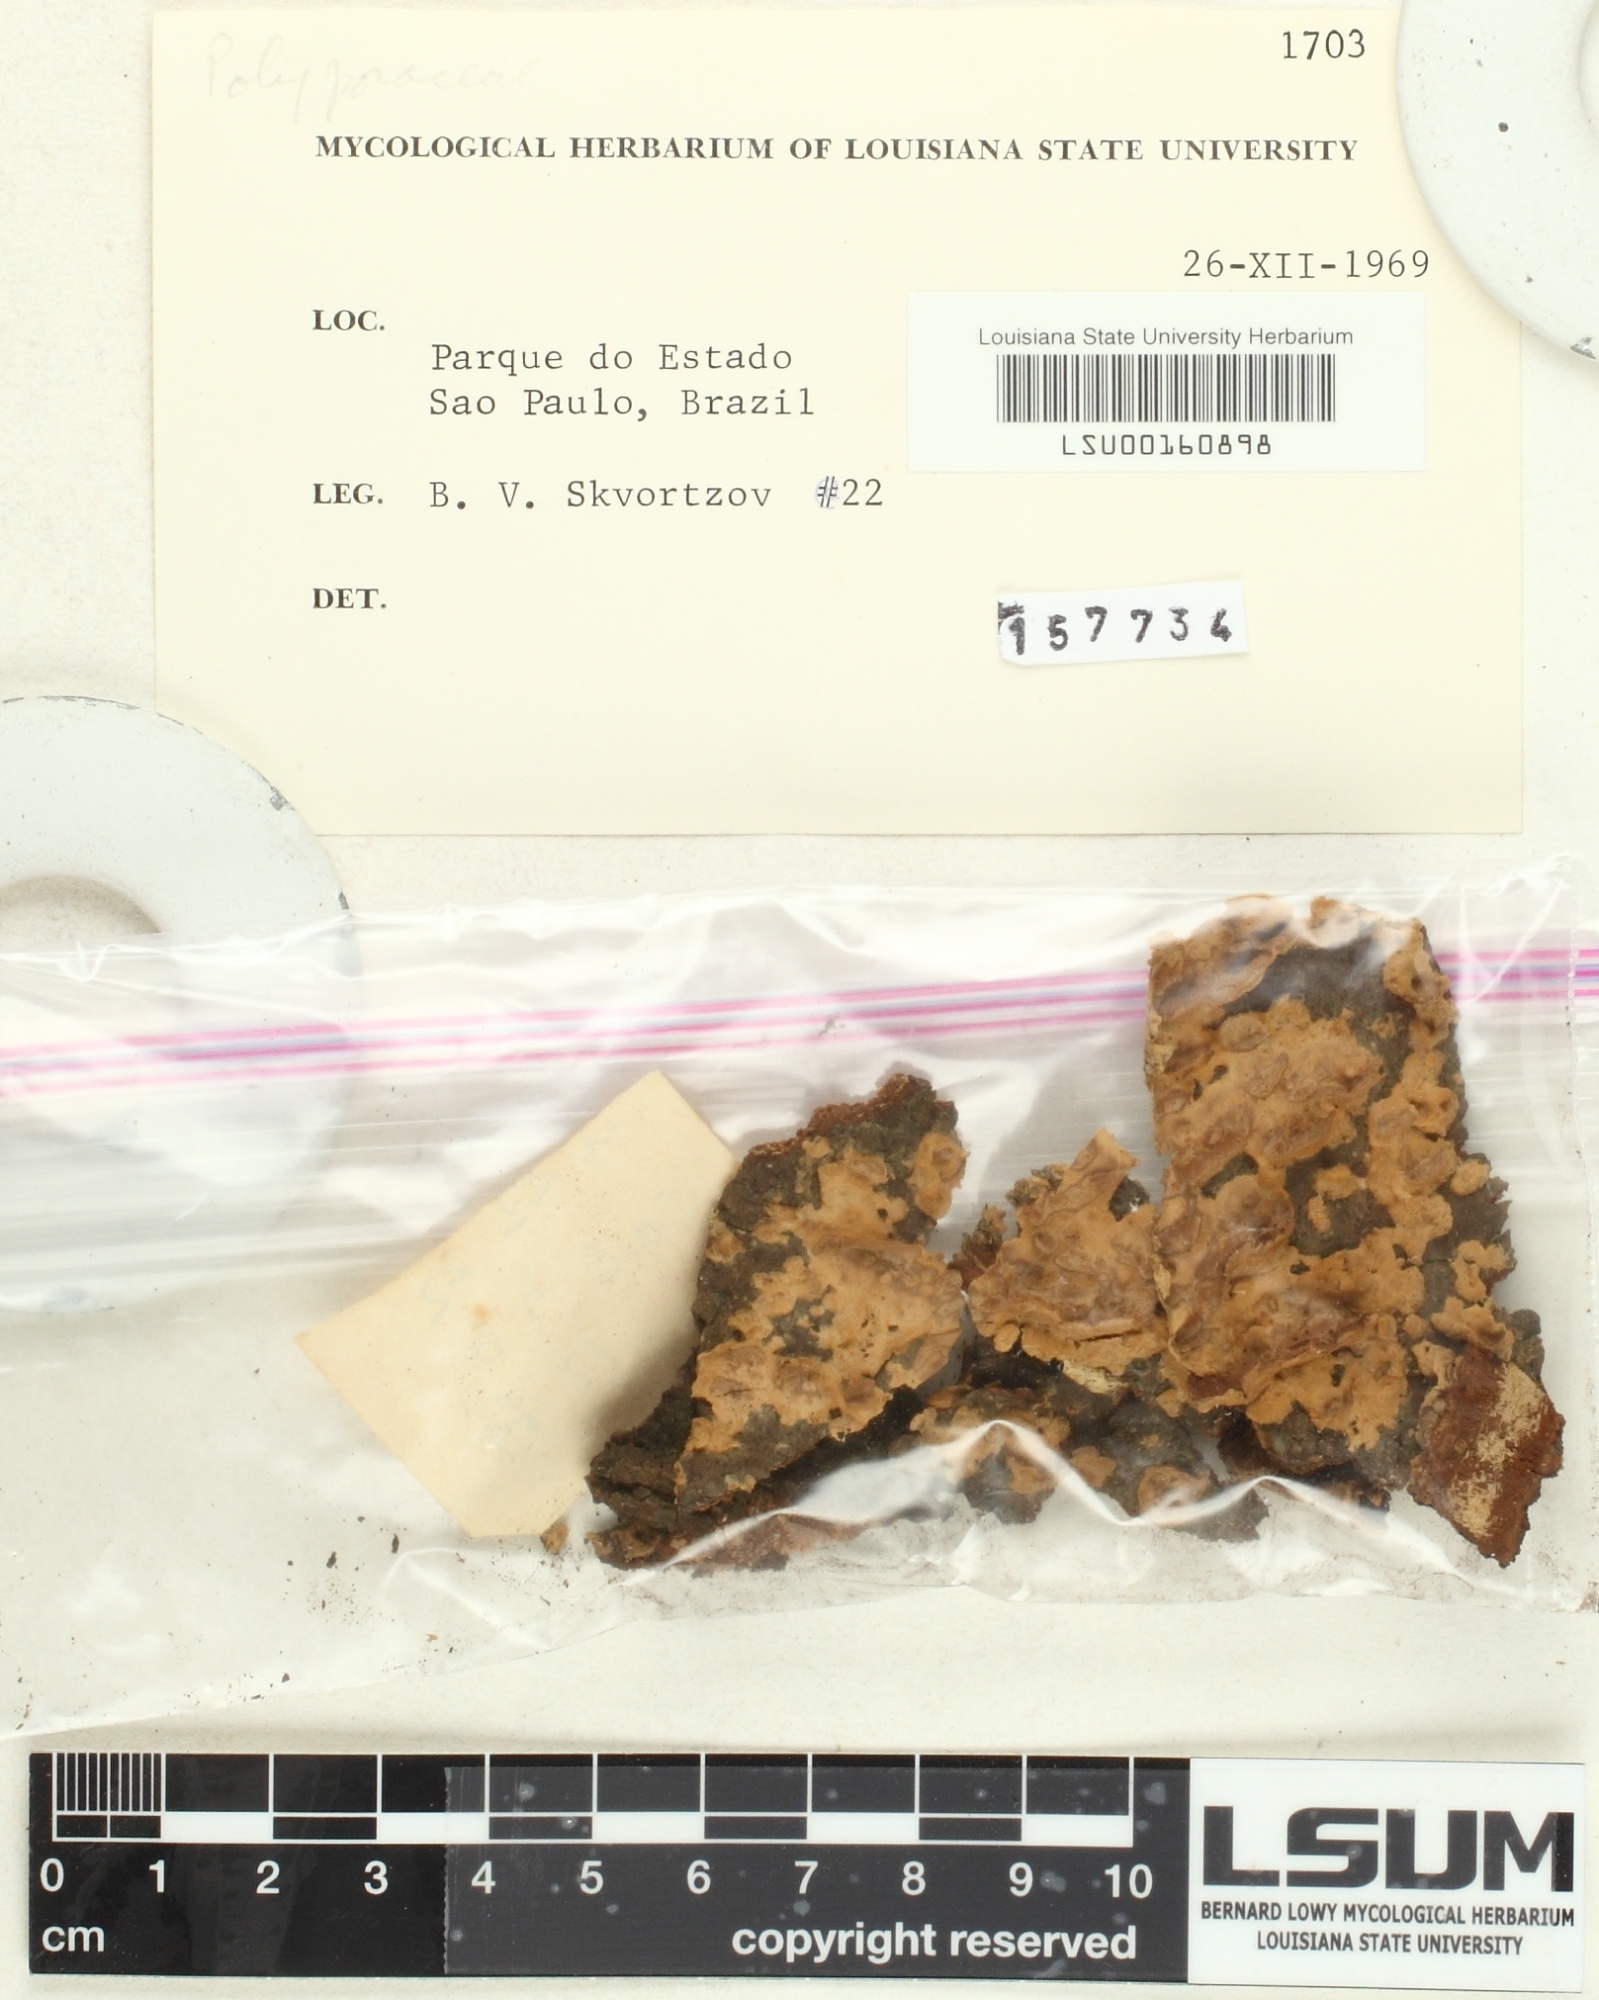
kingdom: Fungi
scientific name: Fungi
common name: Fungi
